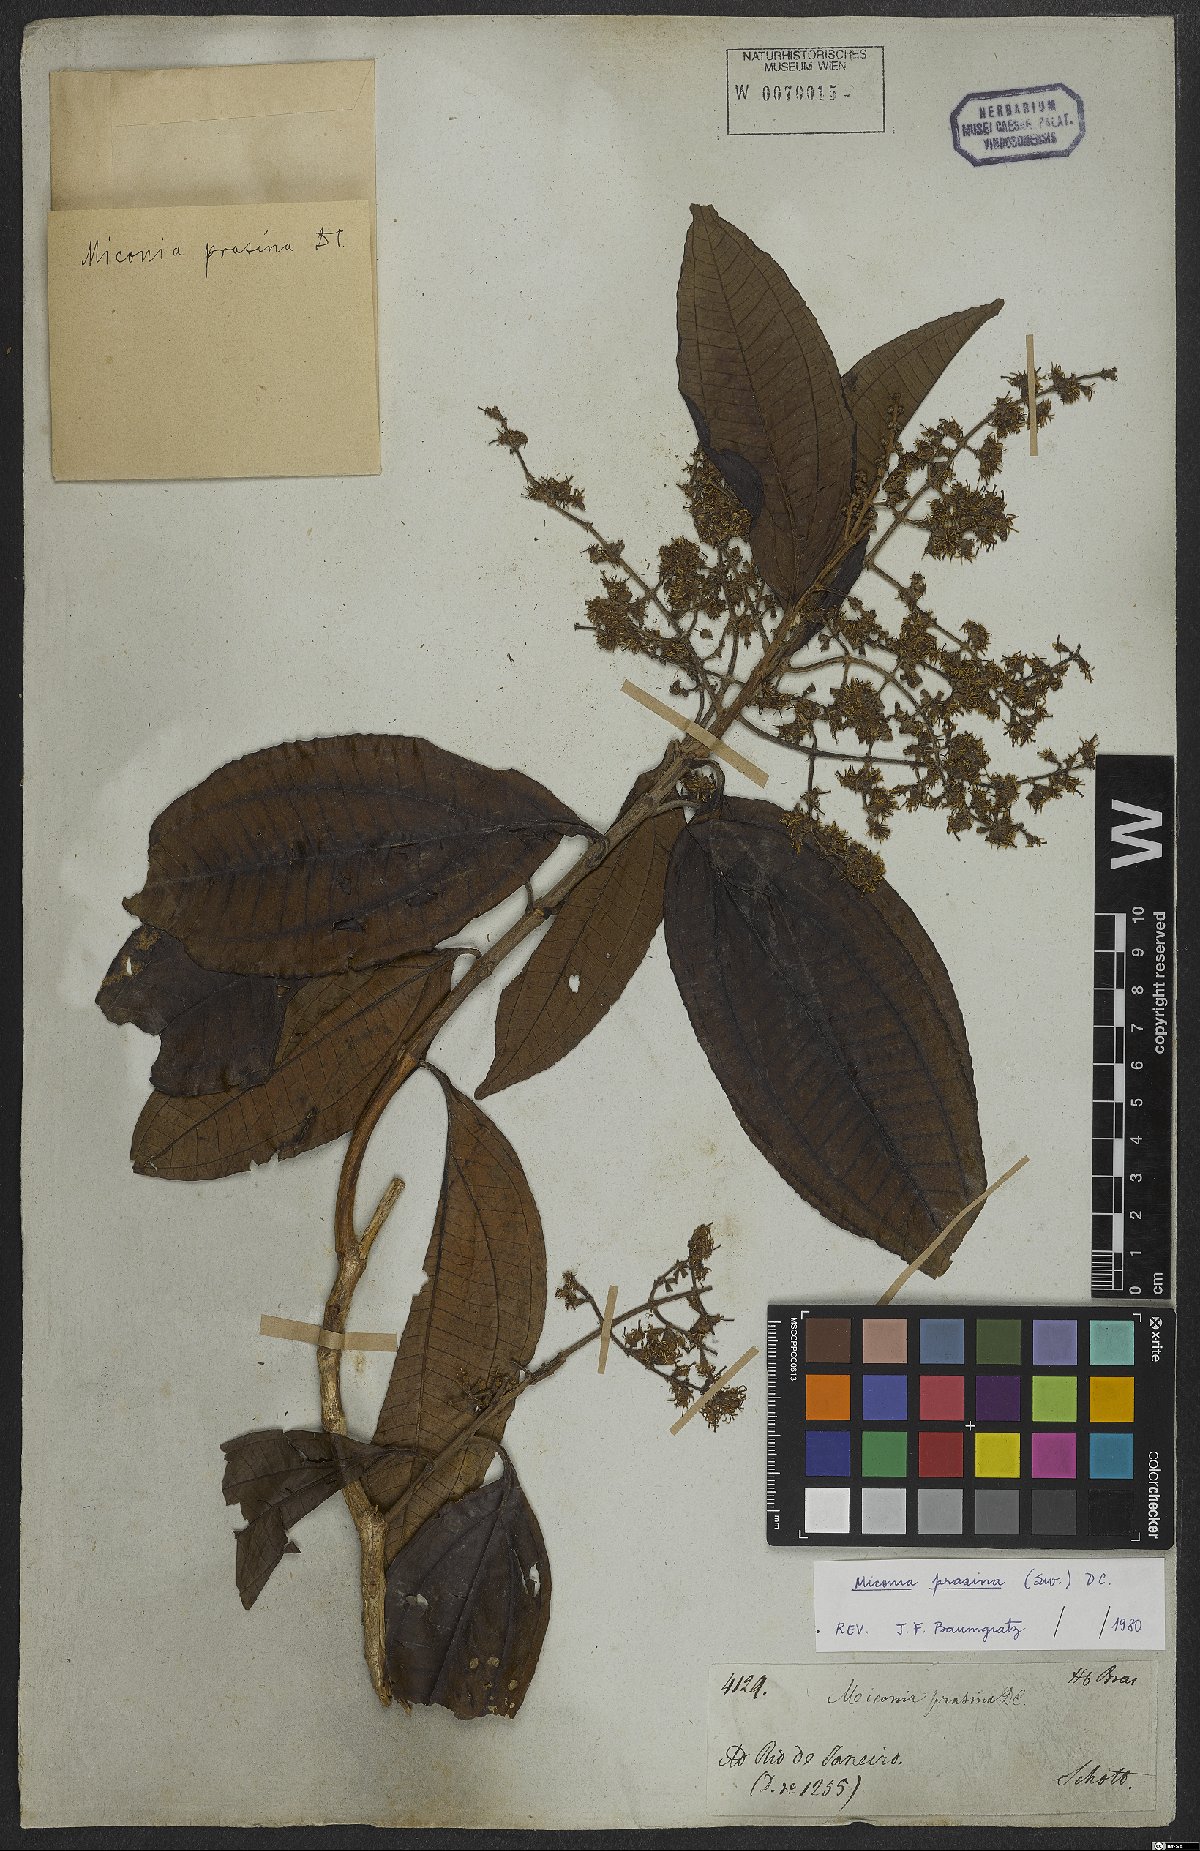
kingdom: Plantae
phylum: Tracheophyta
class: Magnoliopsida
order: Myrtales
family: Melastomataceae
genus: Miconia
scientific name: Miconia prasina
